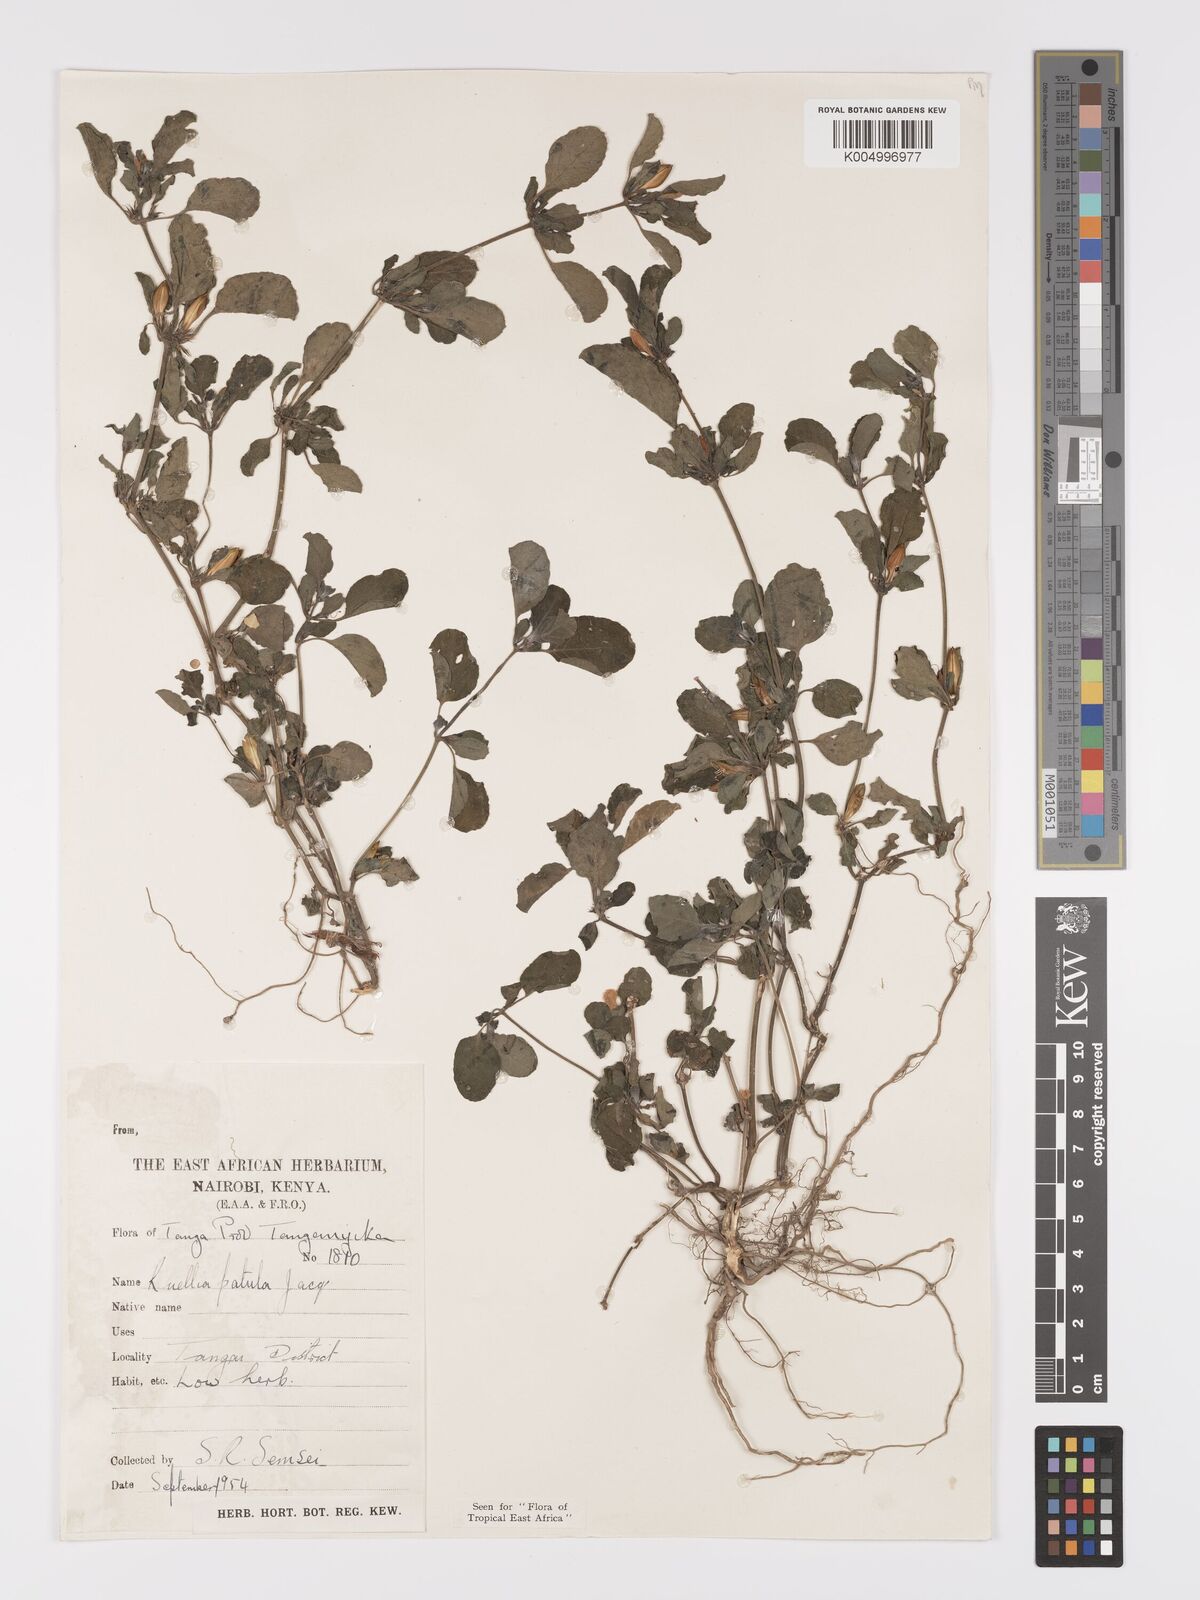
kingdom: Plantae
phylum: Tracheophyta
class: Magnoliopsida
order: Lamiales
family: Acanthaceae
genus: Ruellia
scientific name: Ruellia patula
